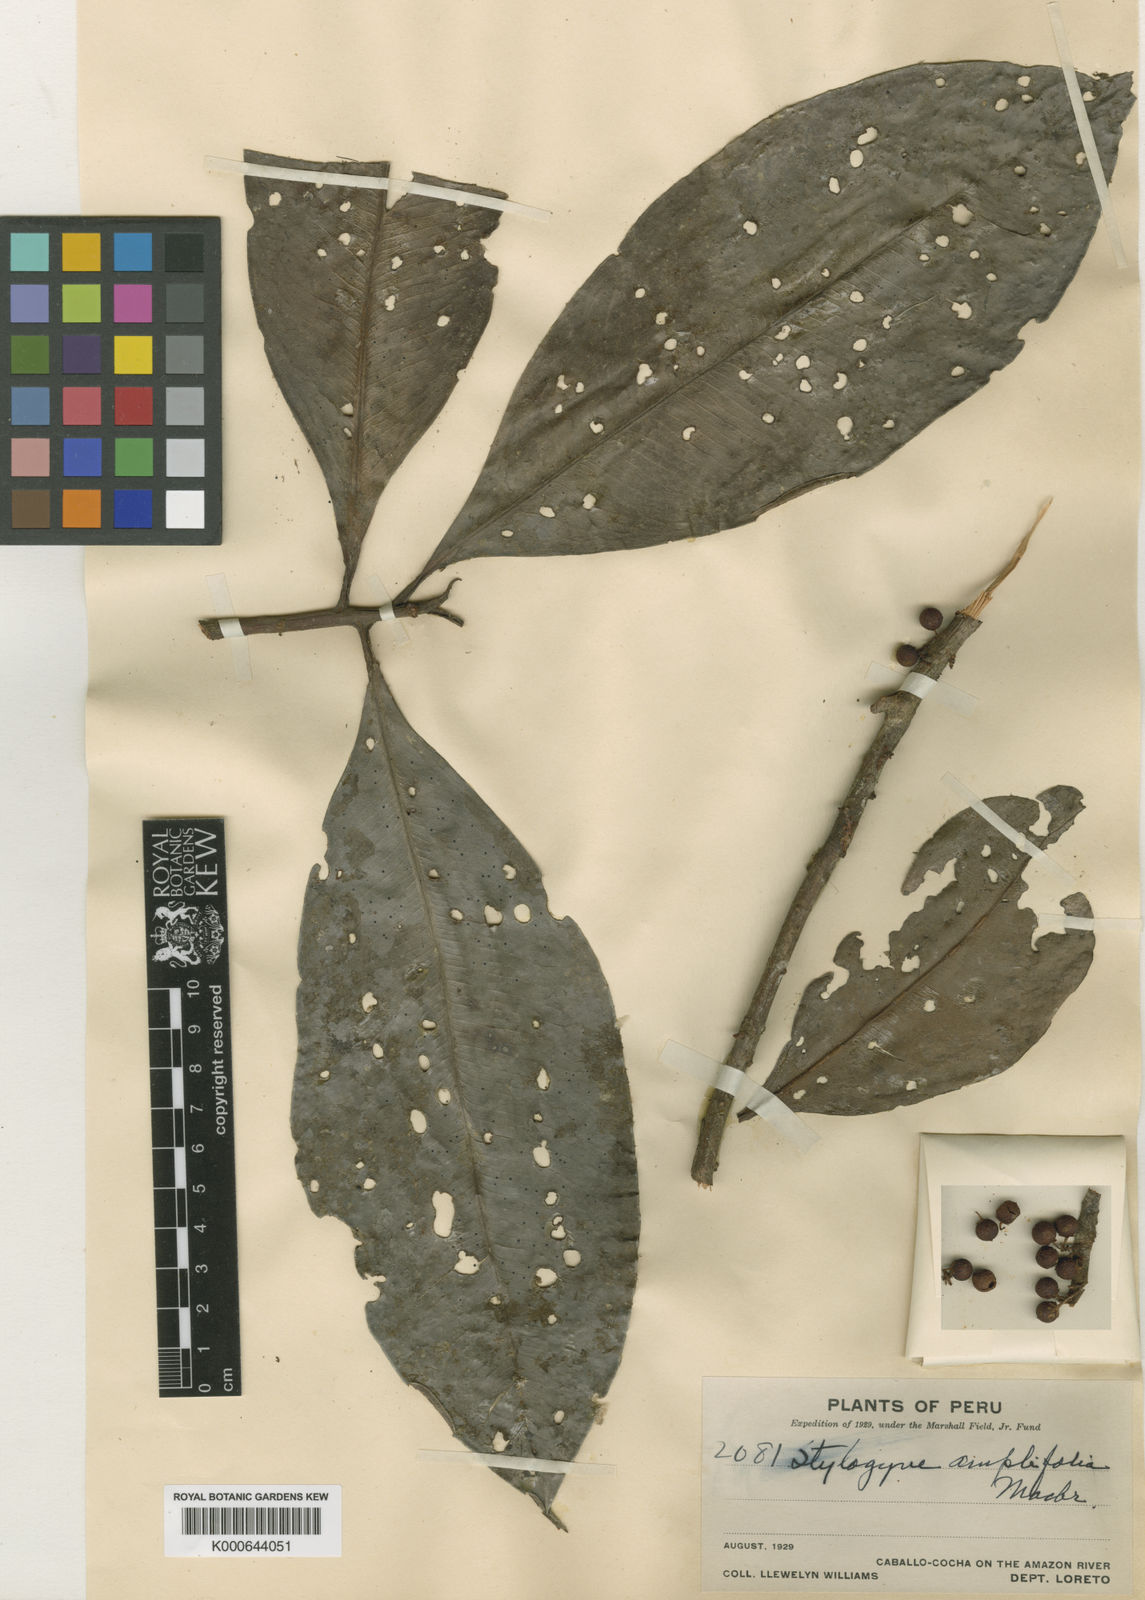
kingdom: Plantae
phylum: Tracheophyta
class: Magnoliopsida
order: Ericales
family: Primulaceae
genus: Stylogyne
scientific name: Stylogyne ardisioides
